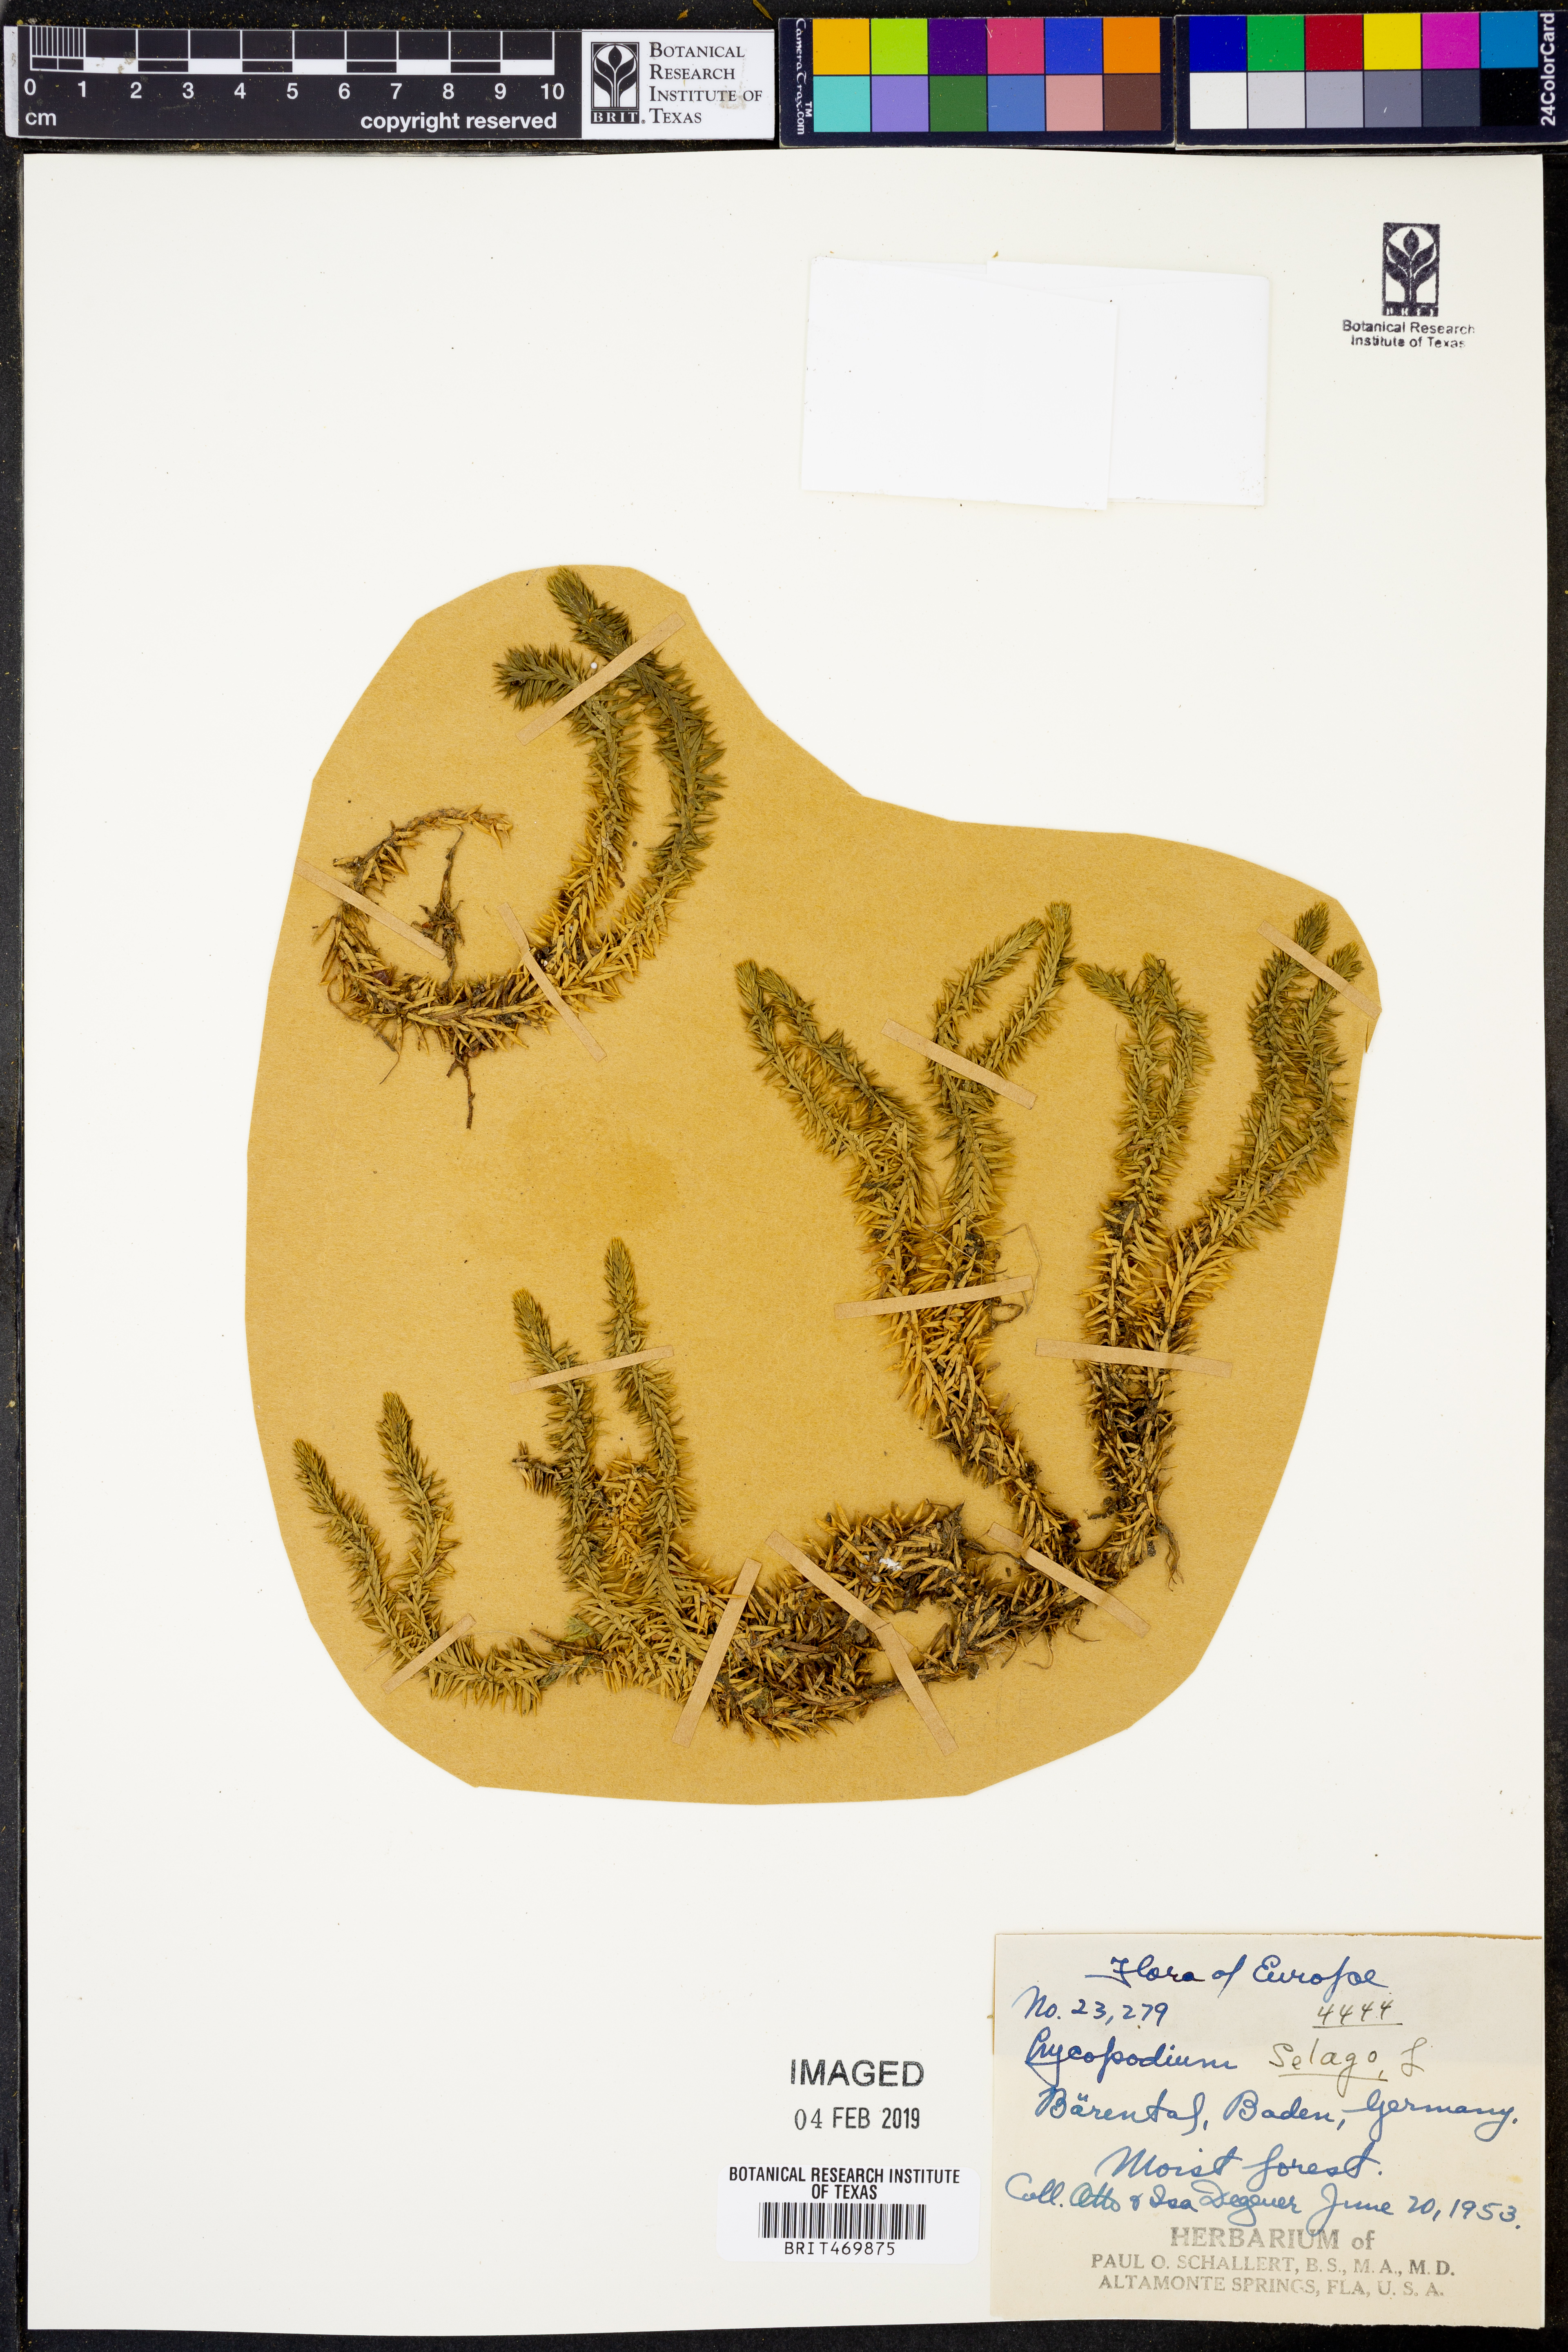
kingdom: Plantae
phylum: Tracheophyta
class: Lycopodiopsida
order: Lycopodiales
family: Lycopodiaceae
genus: Huperzia
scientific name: Huperzia selago
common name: Northern firmoss
